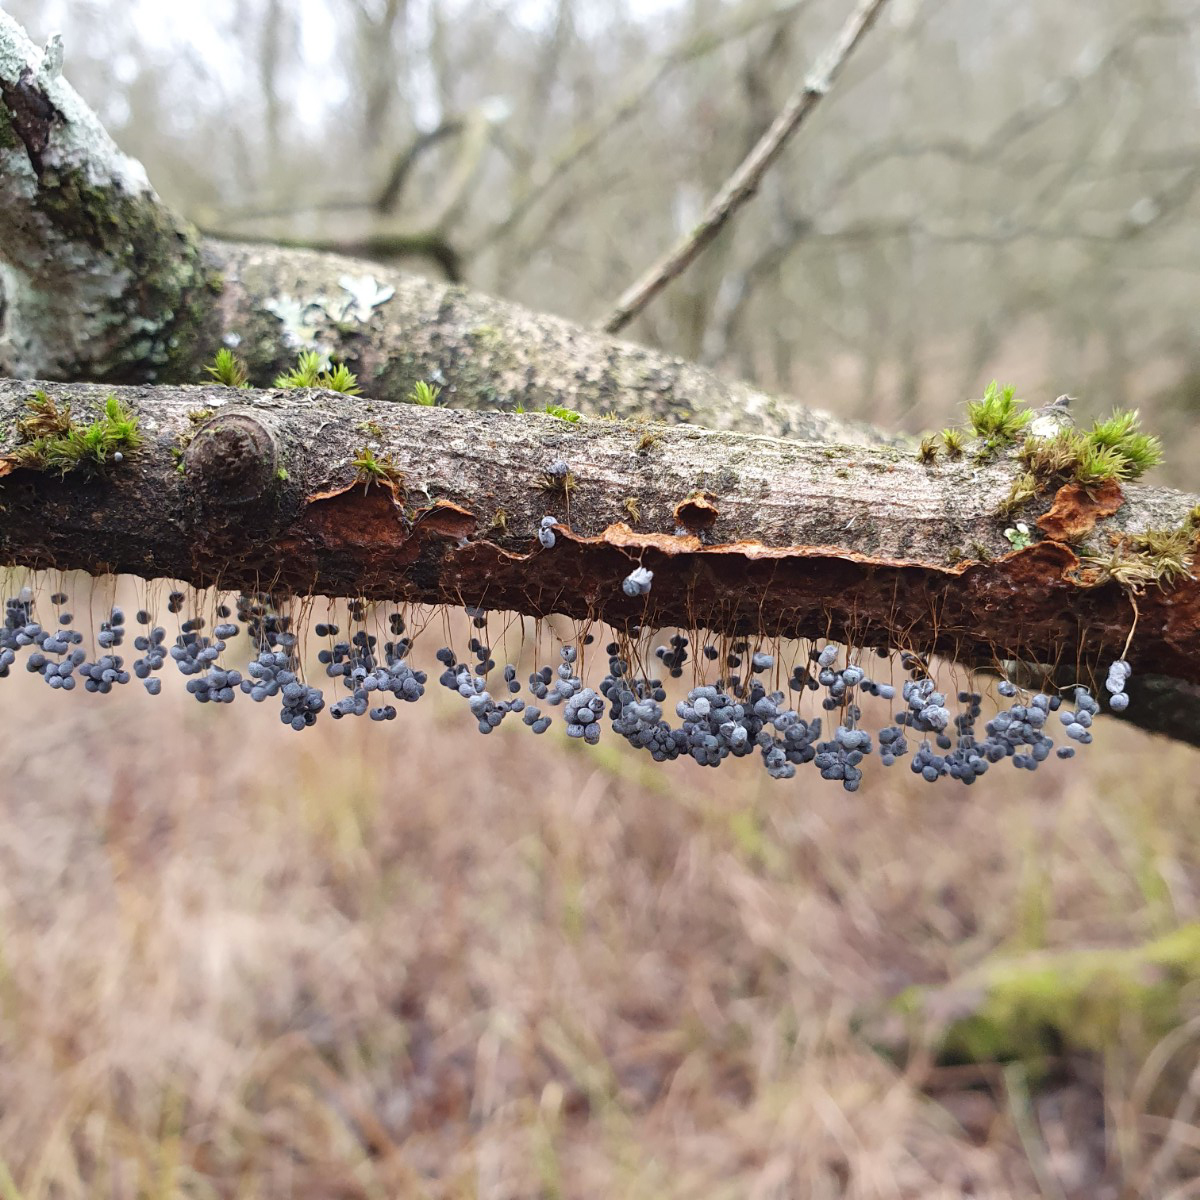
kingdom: Protozoa
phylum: Mycetozoa
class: Myxomycetes
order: Physarales
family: Physaraceae
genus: Badhamia
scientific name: Badhamia utricularis
